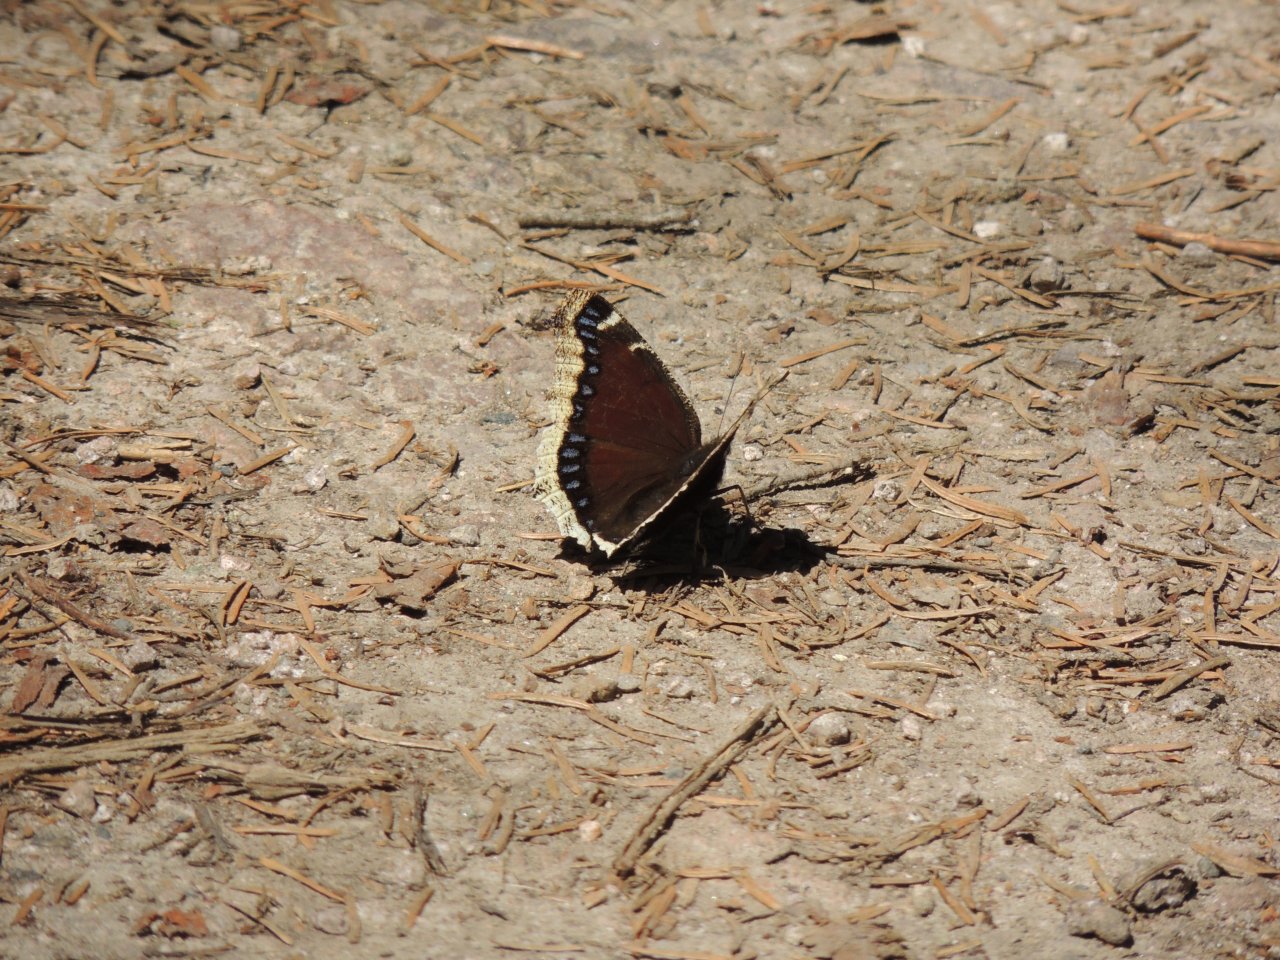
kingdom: Animalia
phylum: Arthropoda
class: Insecta
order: Lepidoptera
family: Nymphalidae
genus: Nymphalis
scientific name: Nymphalis antiopa
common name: Mourning Cloak
